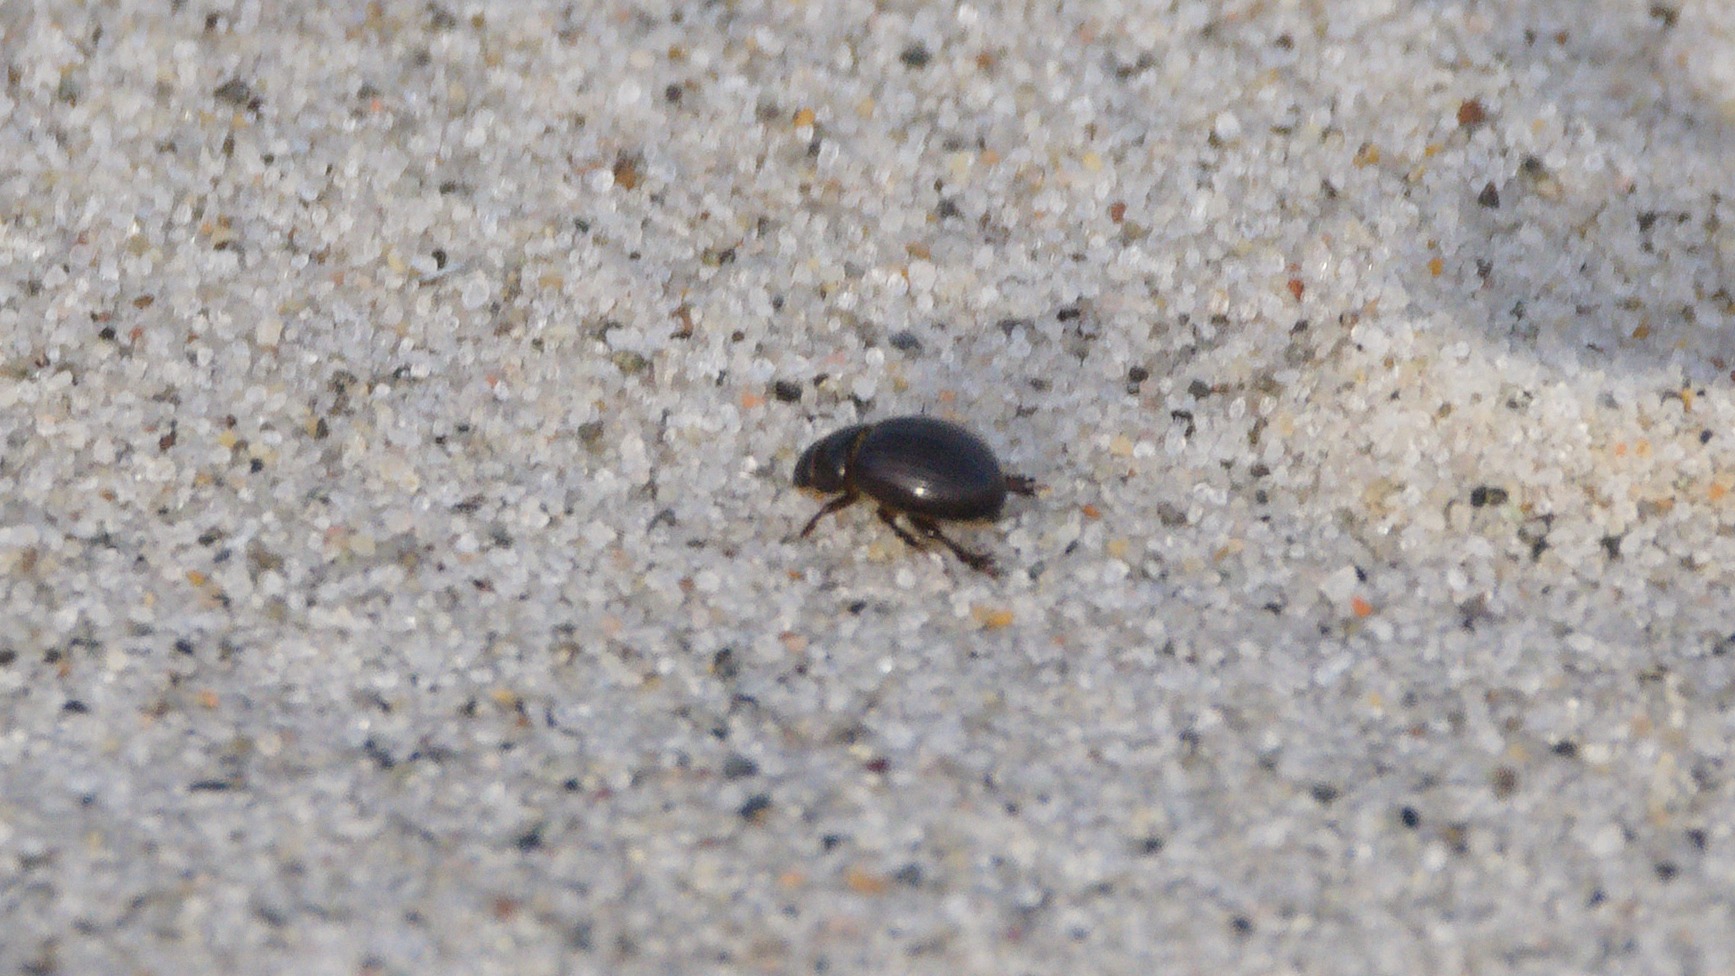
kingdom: Animalia
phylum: Arthropoda
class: Insecta
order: Coleoptera
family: Scarabaeidae
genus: Aegialia
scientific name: Aegialia arenaria
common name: Bred klittorbist
